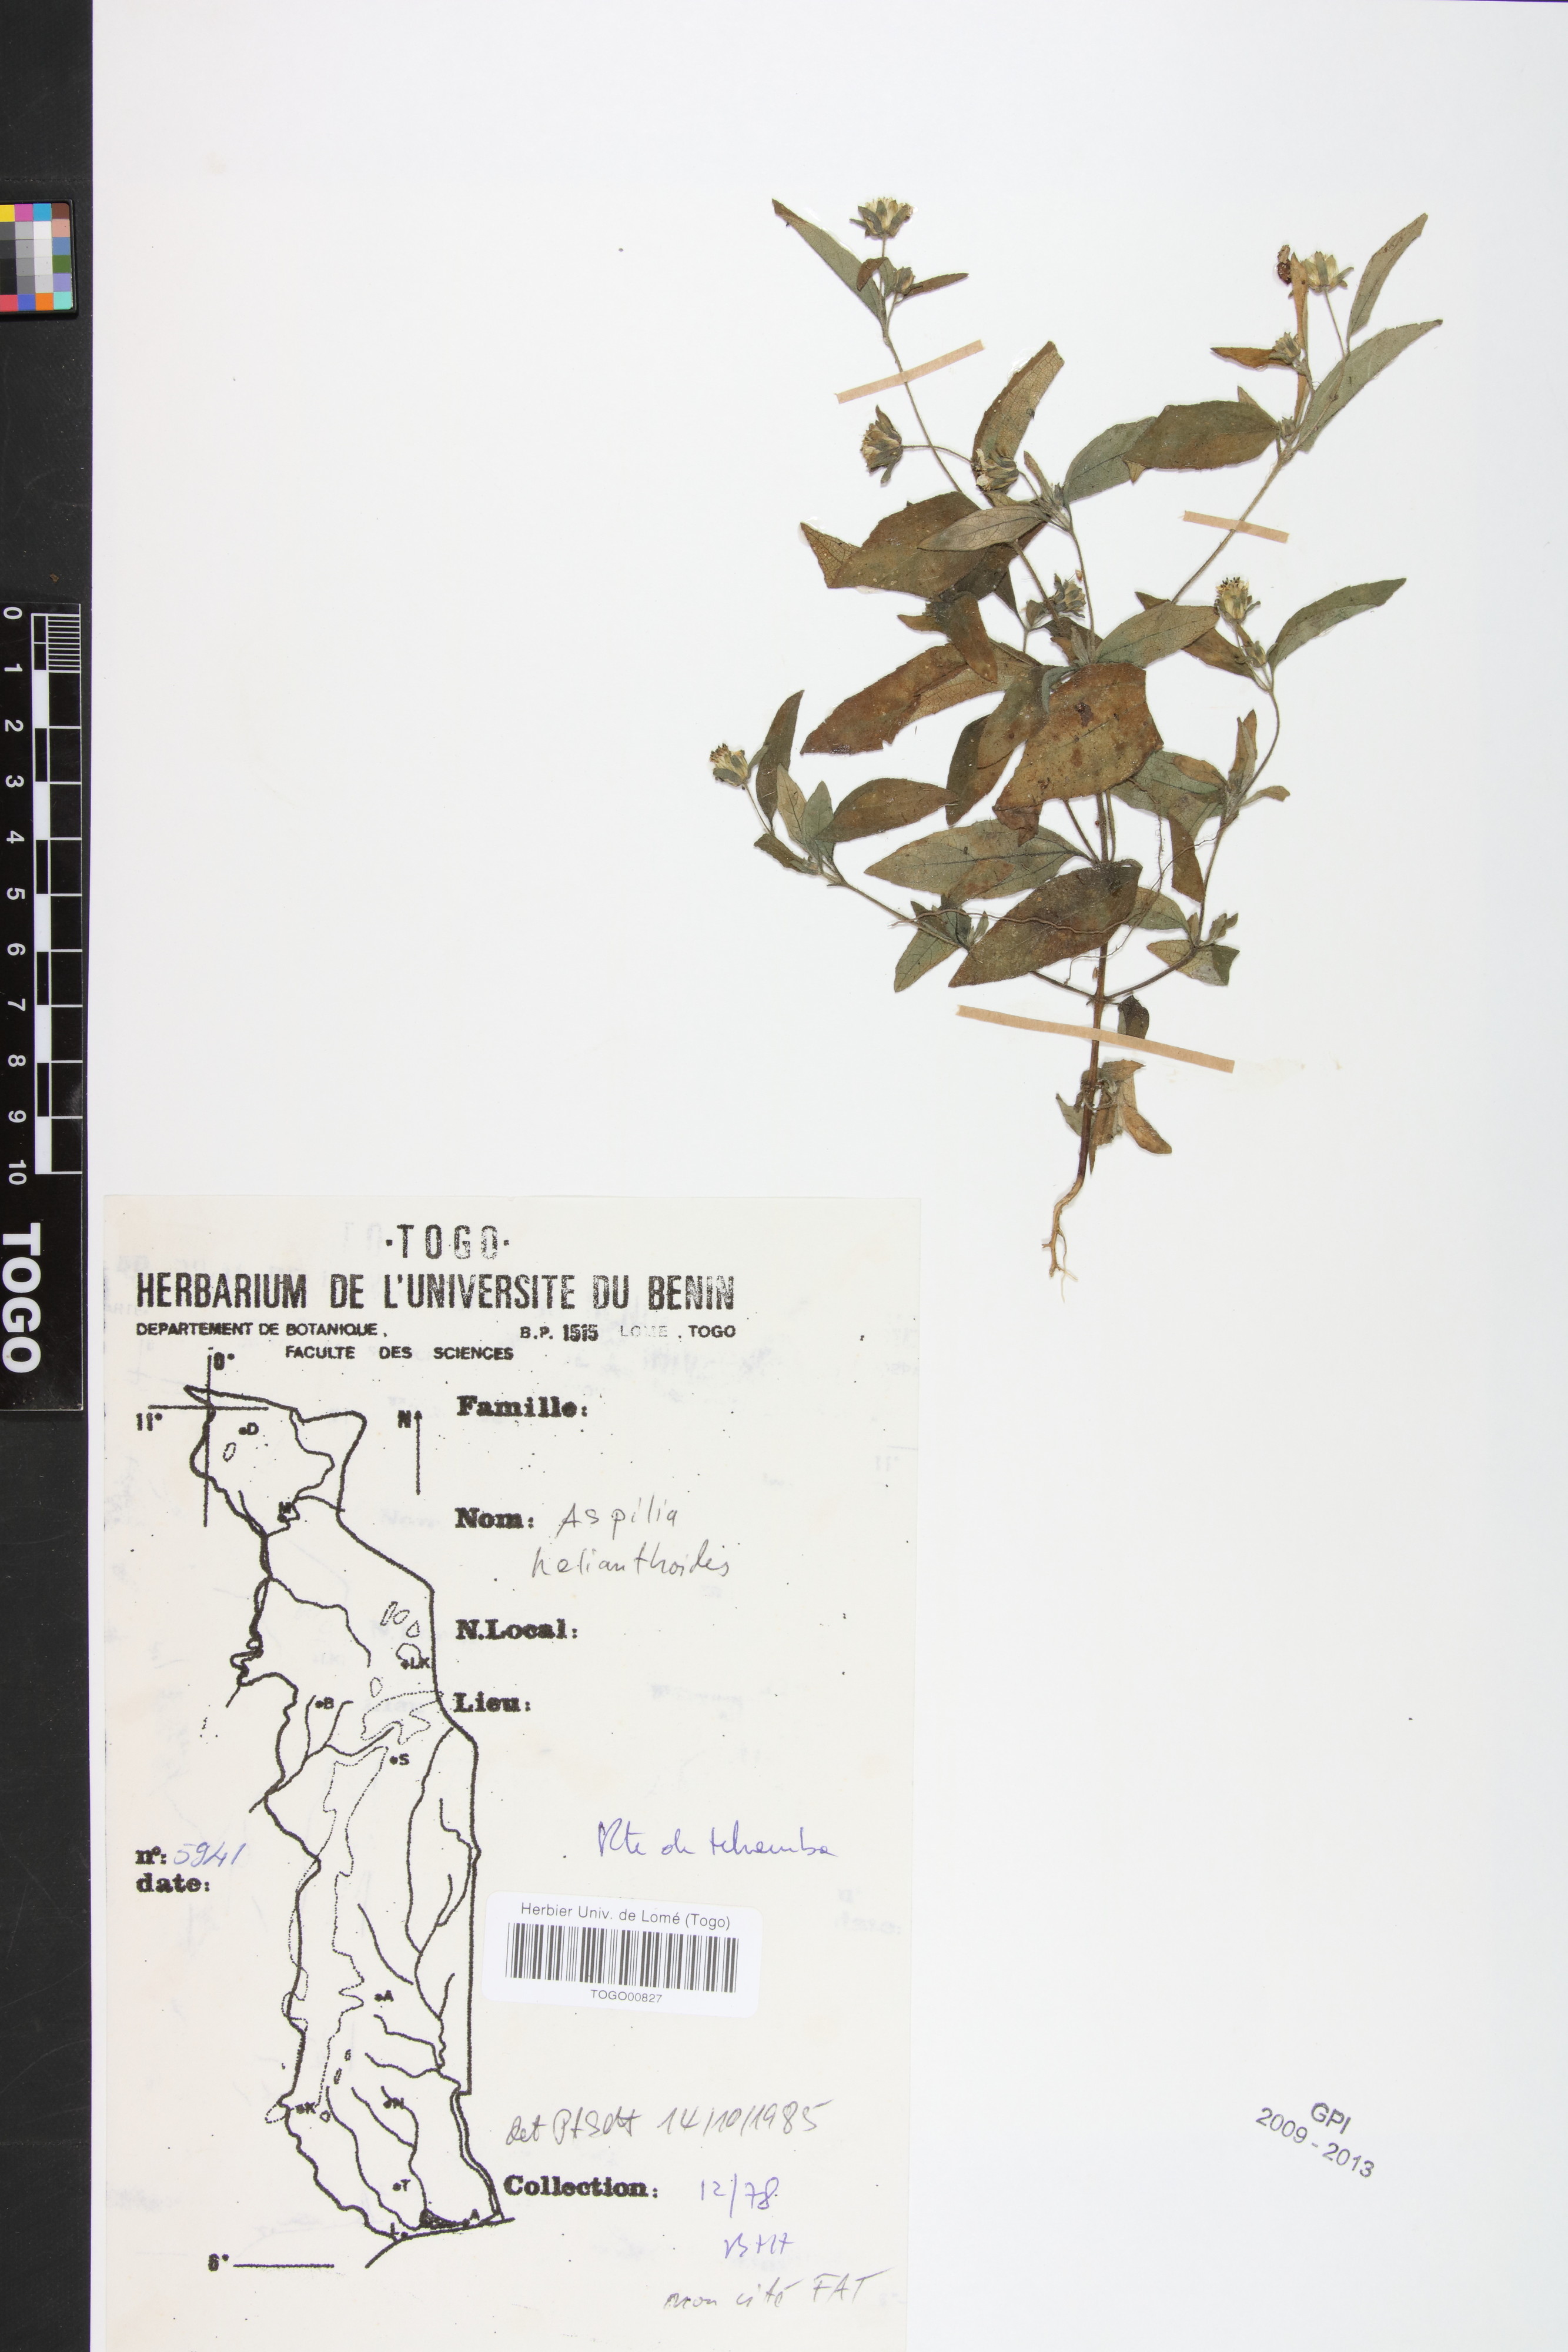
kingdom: Plantae
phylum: Tracheophyta
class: Magnoliopsida
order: Asterales
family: Asteraceae
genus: Aspilia
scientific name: Aspilia helianthoides
